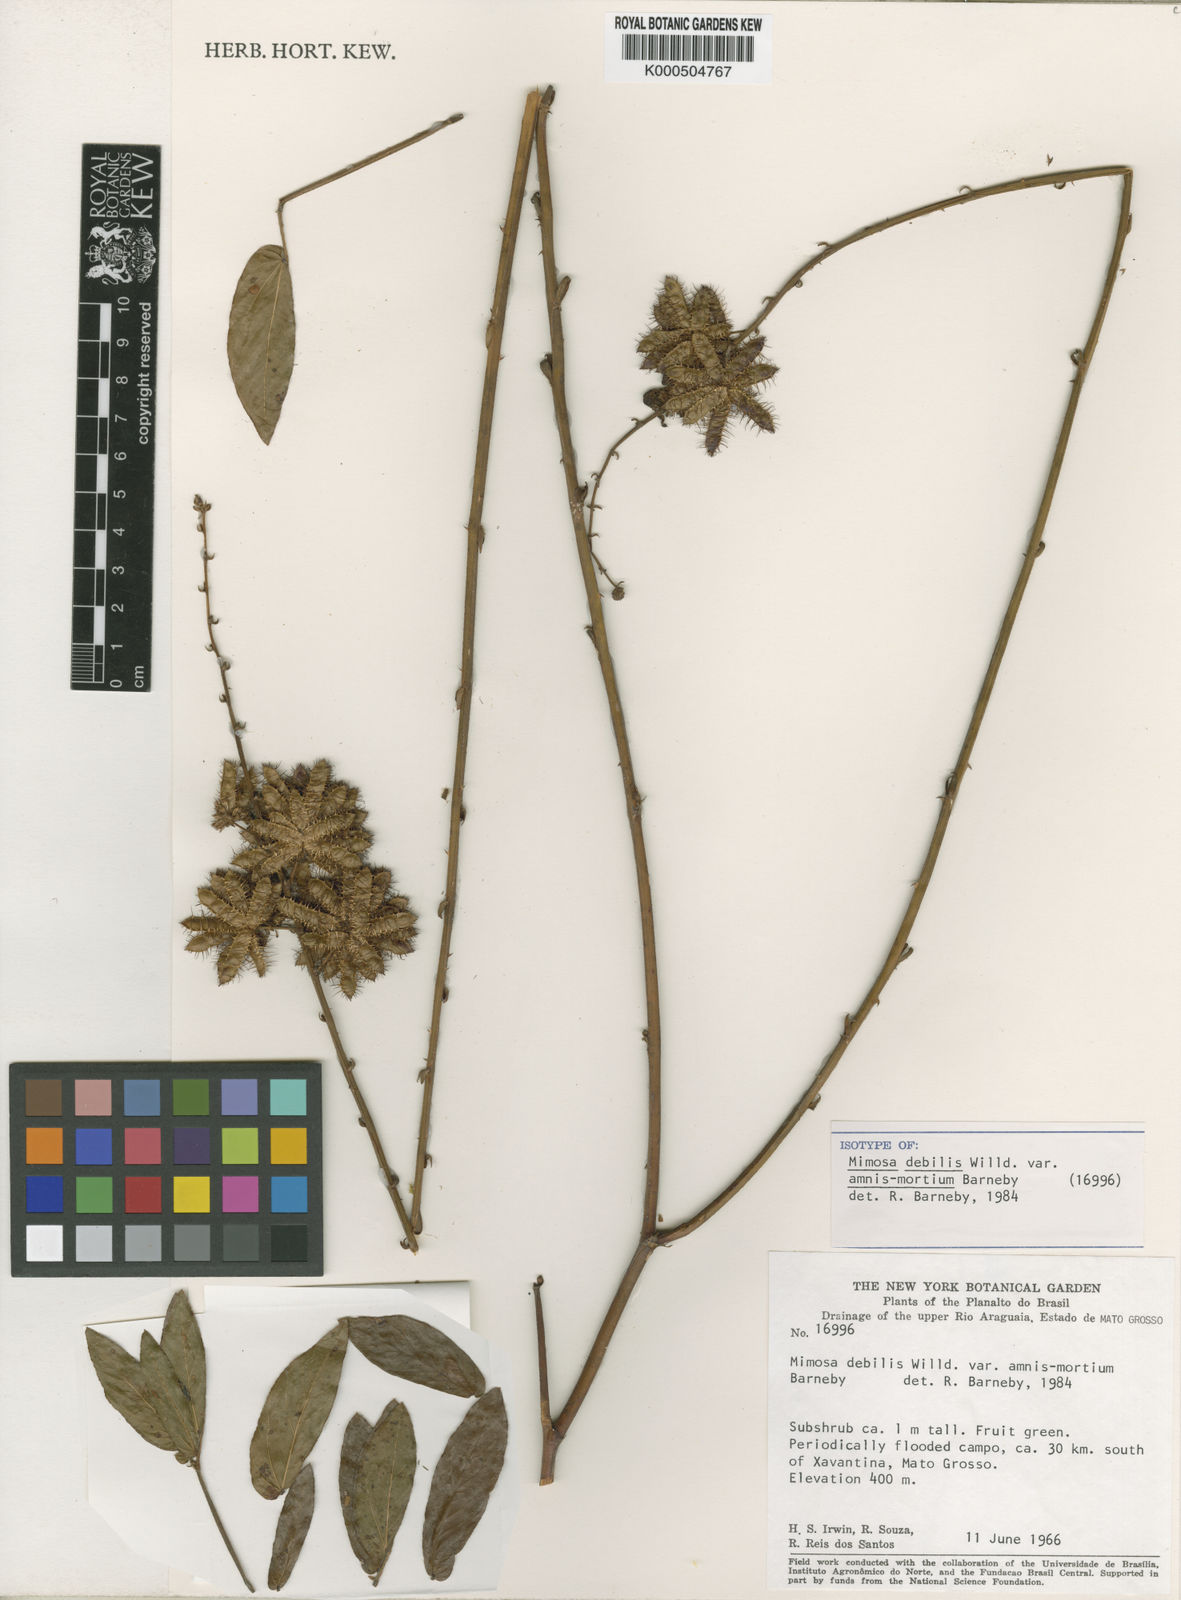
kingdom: Plantae
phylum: Tracheophyta
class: Magnoliopsida
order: Fabales
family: Fabaceae
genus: Mimosa
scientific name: Mimosa debilis
